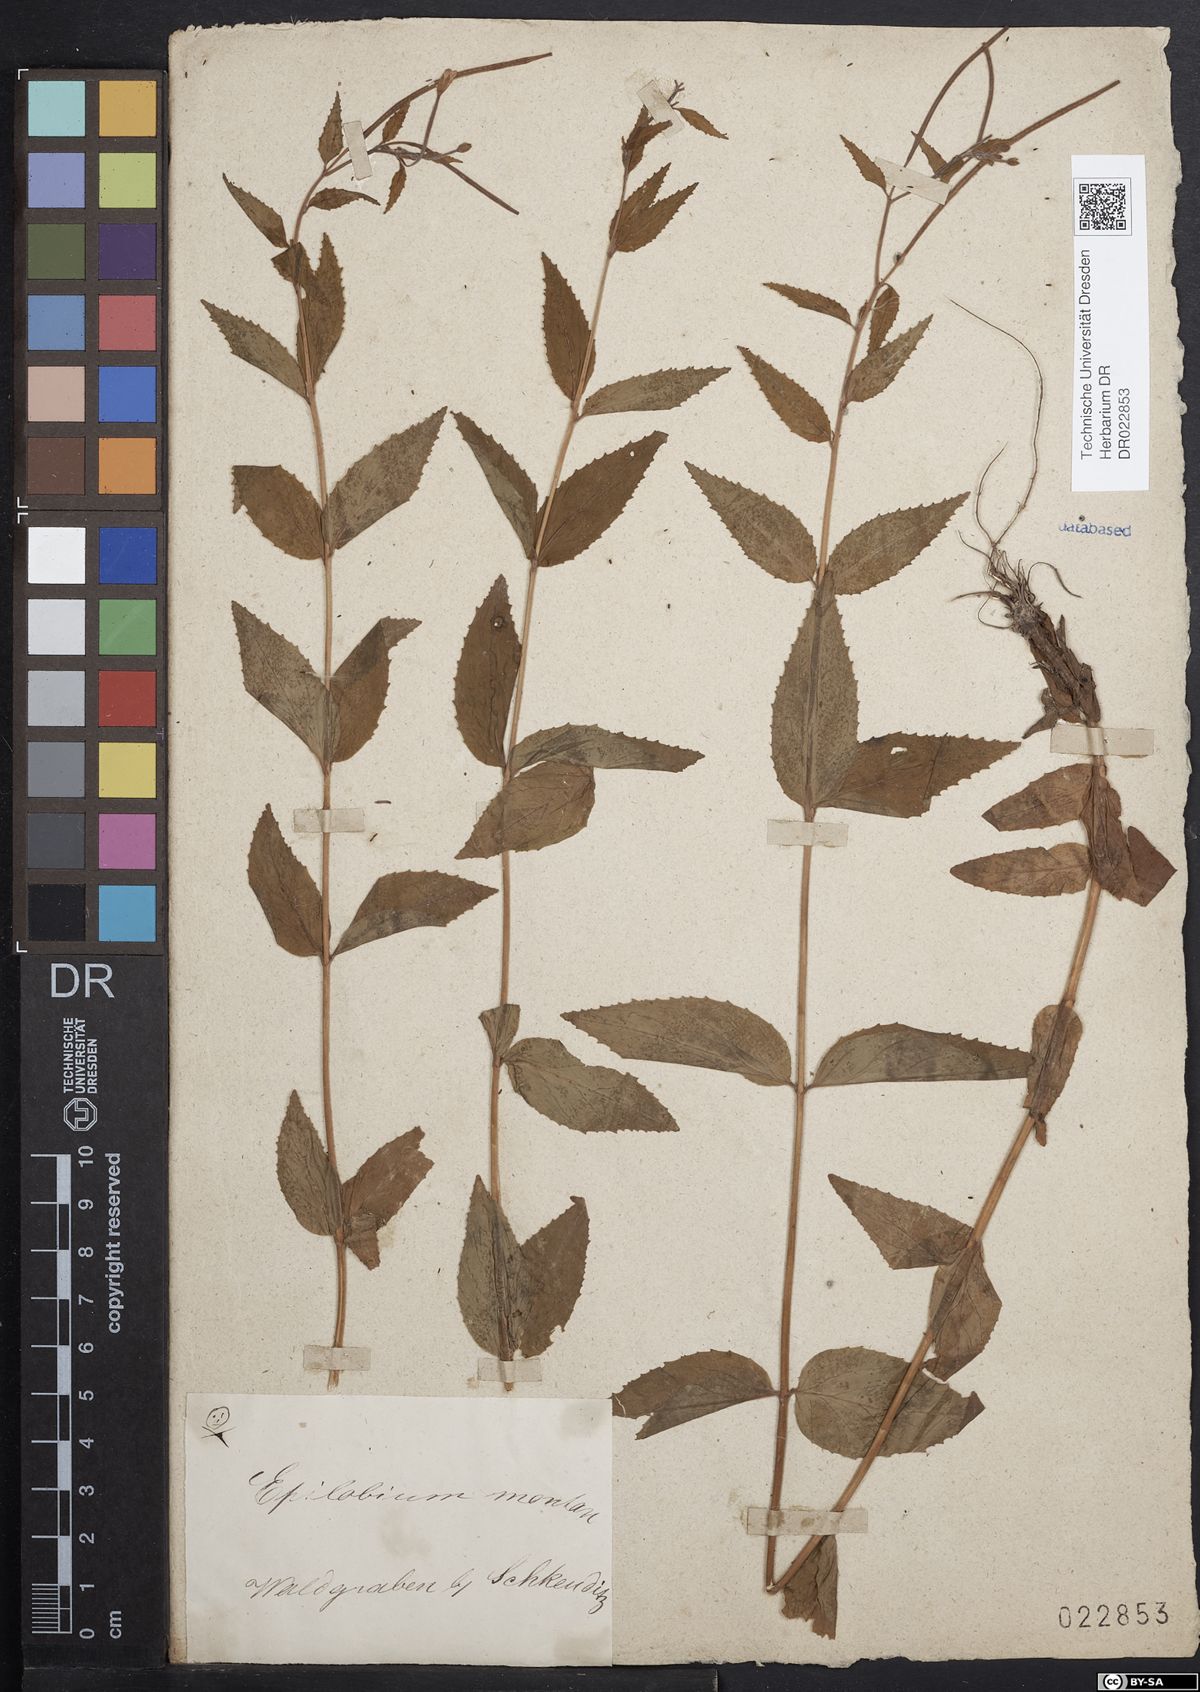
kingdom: Plantae
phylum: Tracheophyta
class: Magnoliopsida
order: Myrtales
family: Onagraceae
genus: Epilobium
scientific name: Epilobium montanum
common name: Broad-leaved willowherb
